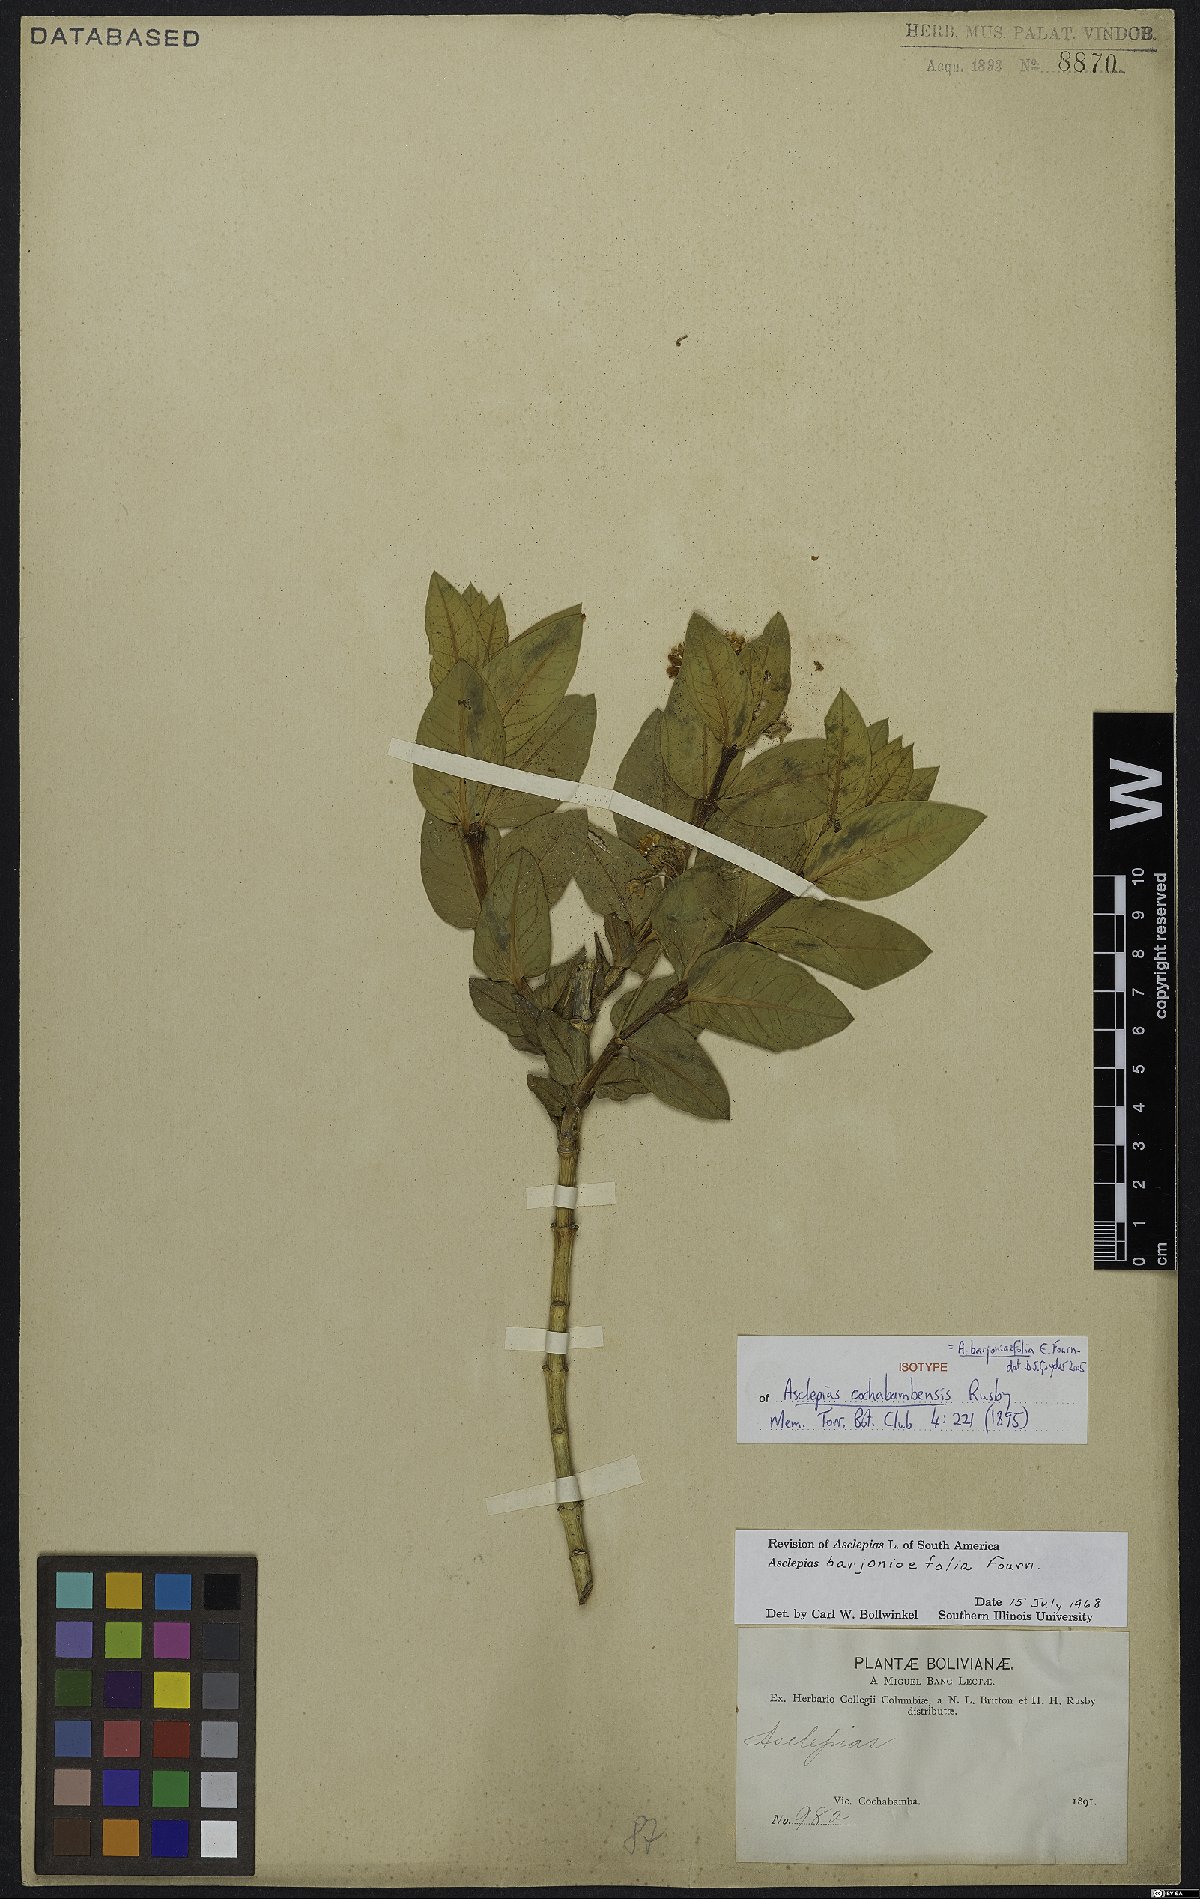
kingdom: Plantae
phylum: Tracheophyta
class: Magnoliopsida
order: Gentianales
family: Apocynaceae
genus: Asclepias
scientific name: Asclepias barjoniifolia
